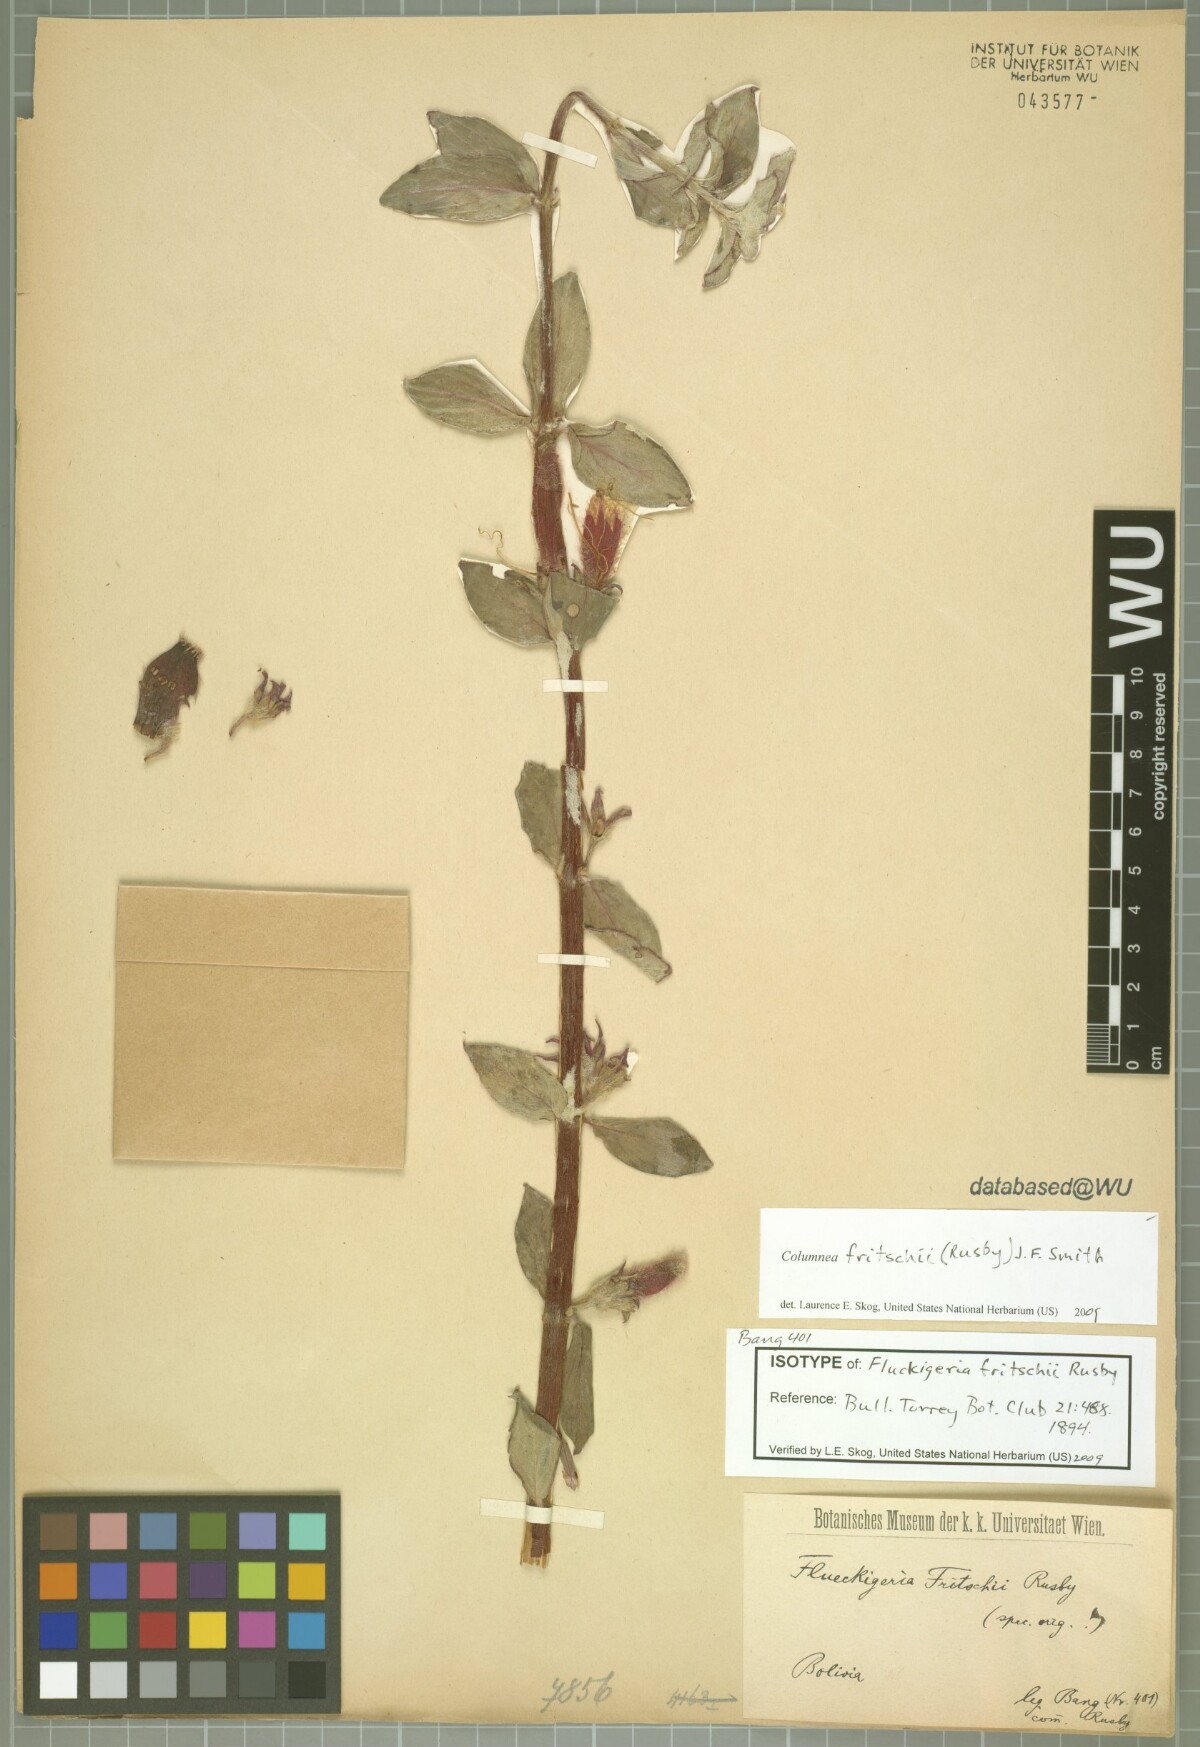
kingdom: Plantae
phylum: Tracheophyta
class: Magnoliopsida
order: Lamiales
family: Gesneriaceae
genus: Columnea
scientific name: Columnea fritschii
